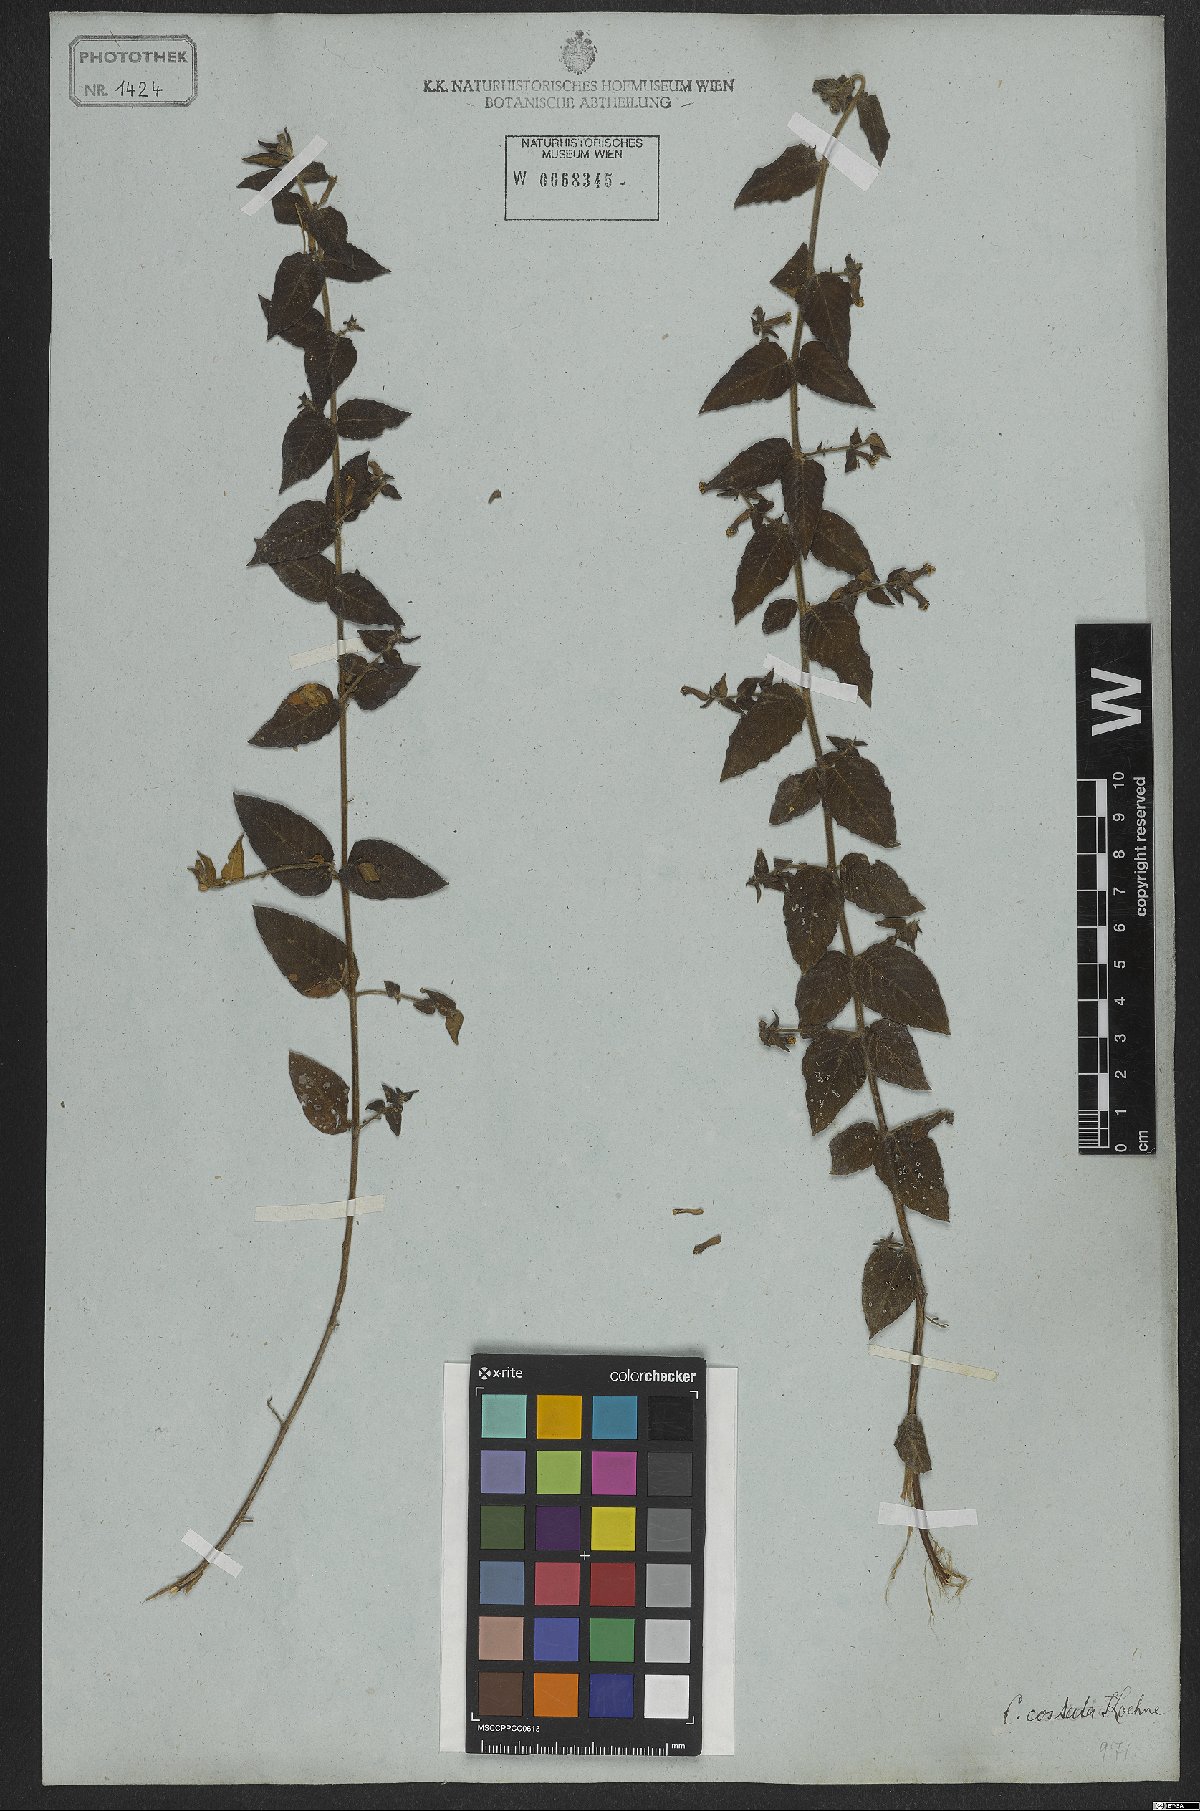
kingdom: Plantae
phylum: Tracheophyta
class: Magnoliopsida
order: Myrtales
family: Lythraceae
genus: Cuphea
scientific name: Cuphea sessiliflora
